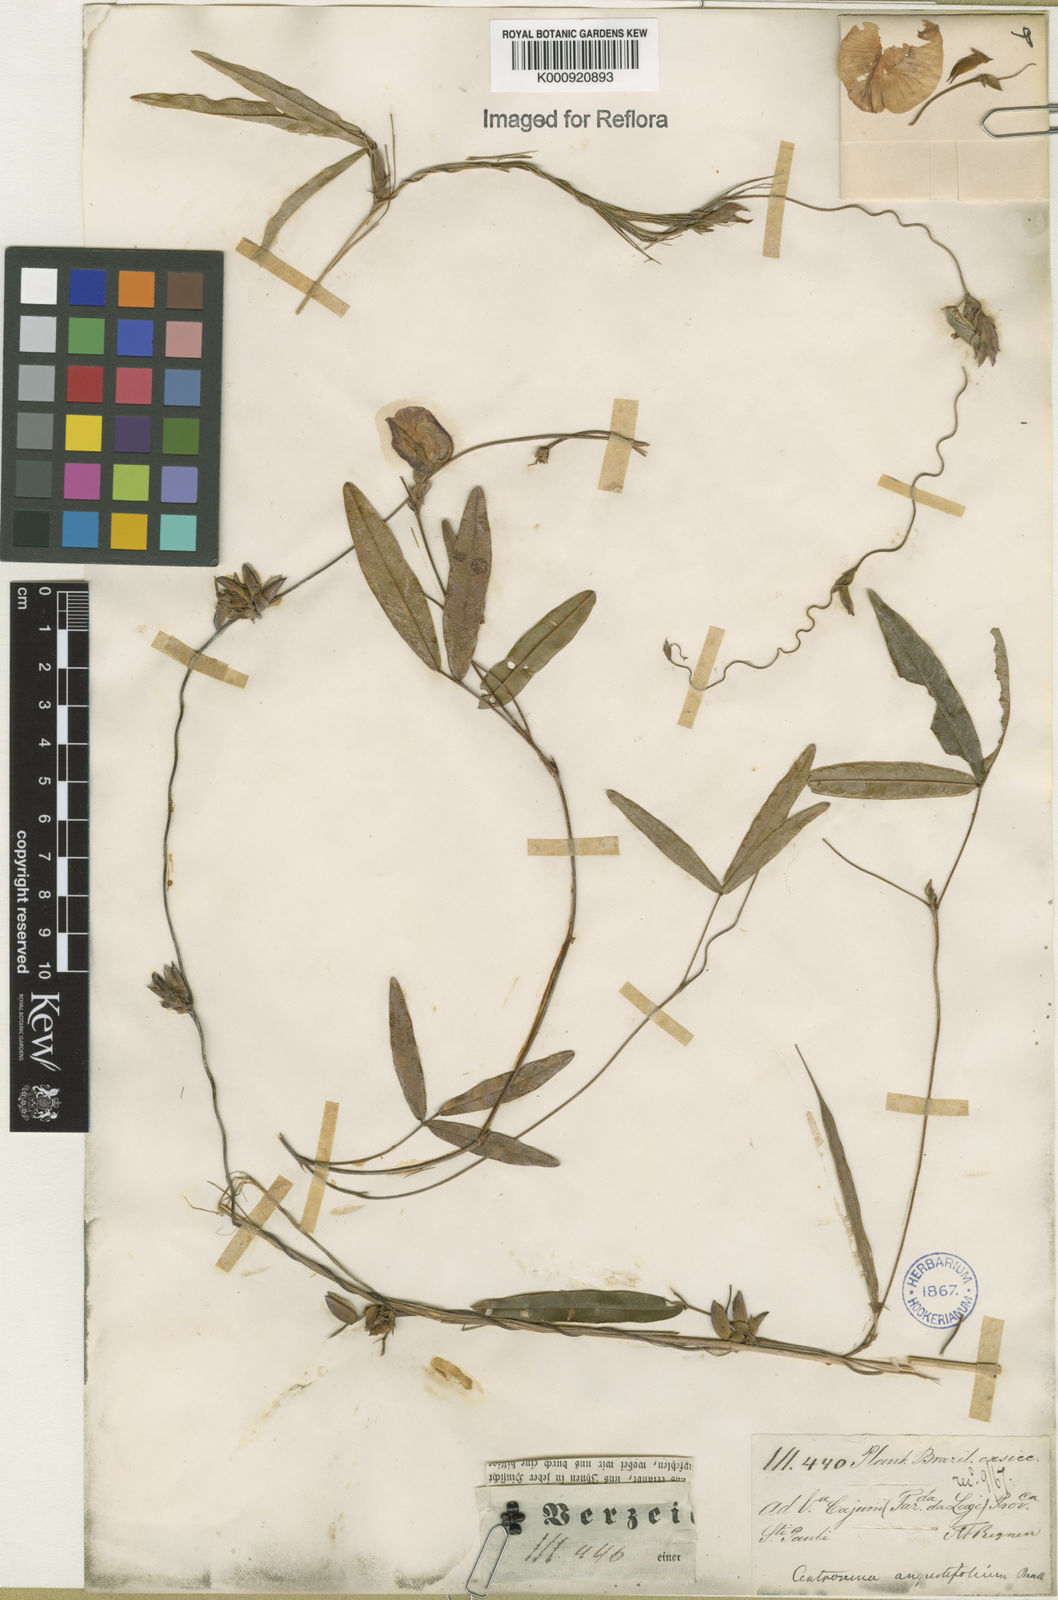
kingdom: Plantae
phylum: Tracheophyta
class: Magnoliopsida
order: Fabales
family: Fabaceae
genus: Centrosema
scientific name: Centrosema brasilianum
